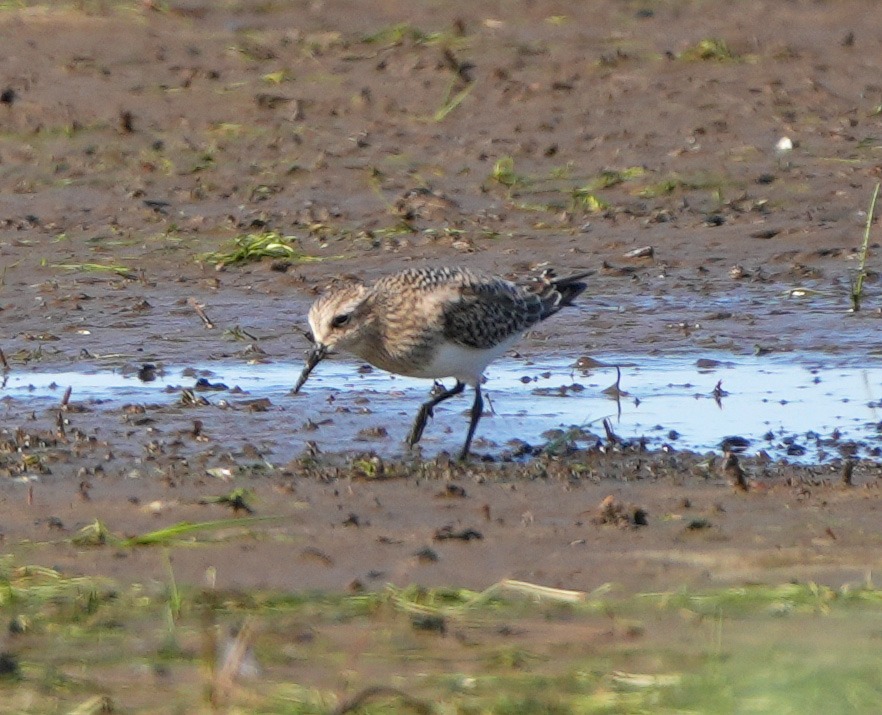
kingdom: Animalia
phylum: Chordata
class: Aves
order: Charadriiformes
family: Scolopacidae
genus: Calidris
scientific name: Calidris bairdii
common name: Bairdsryle
